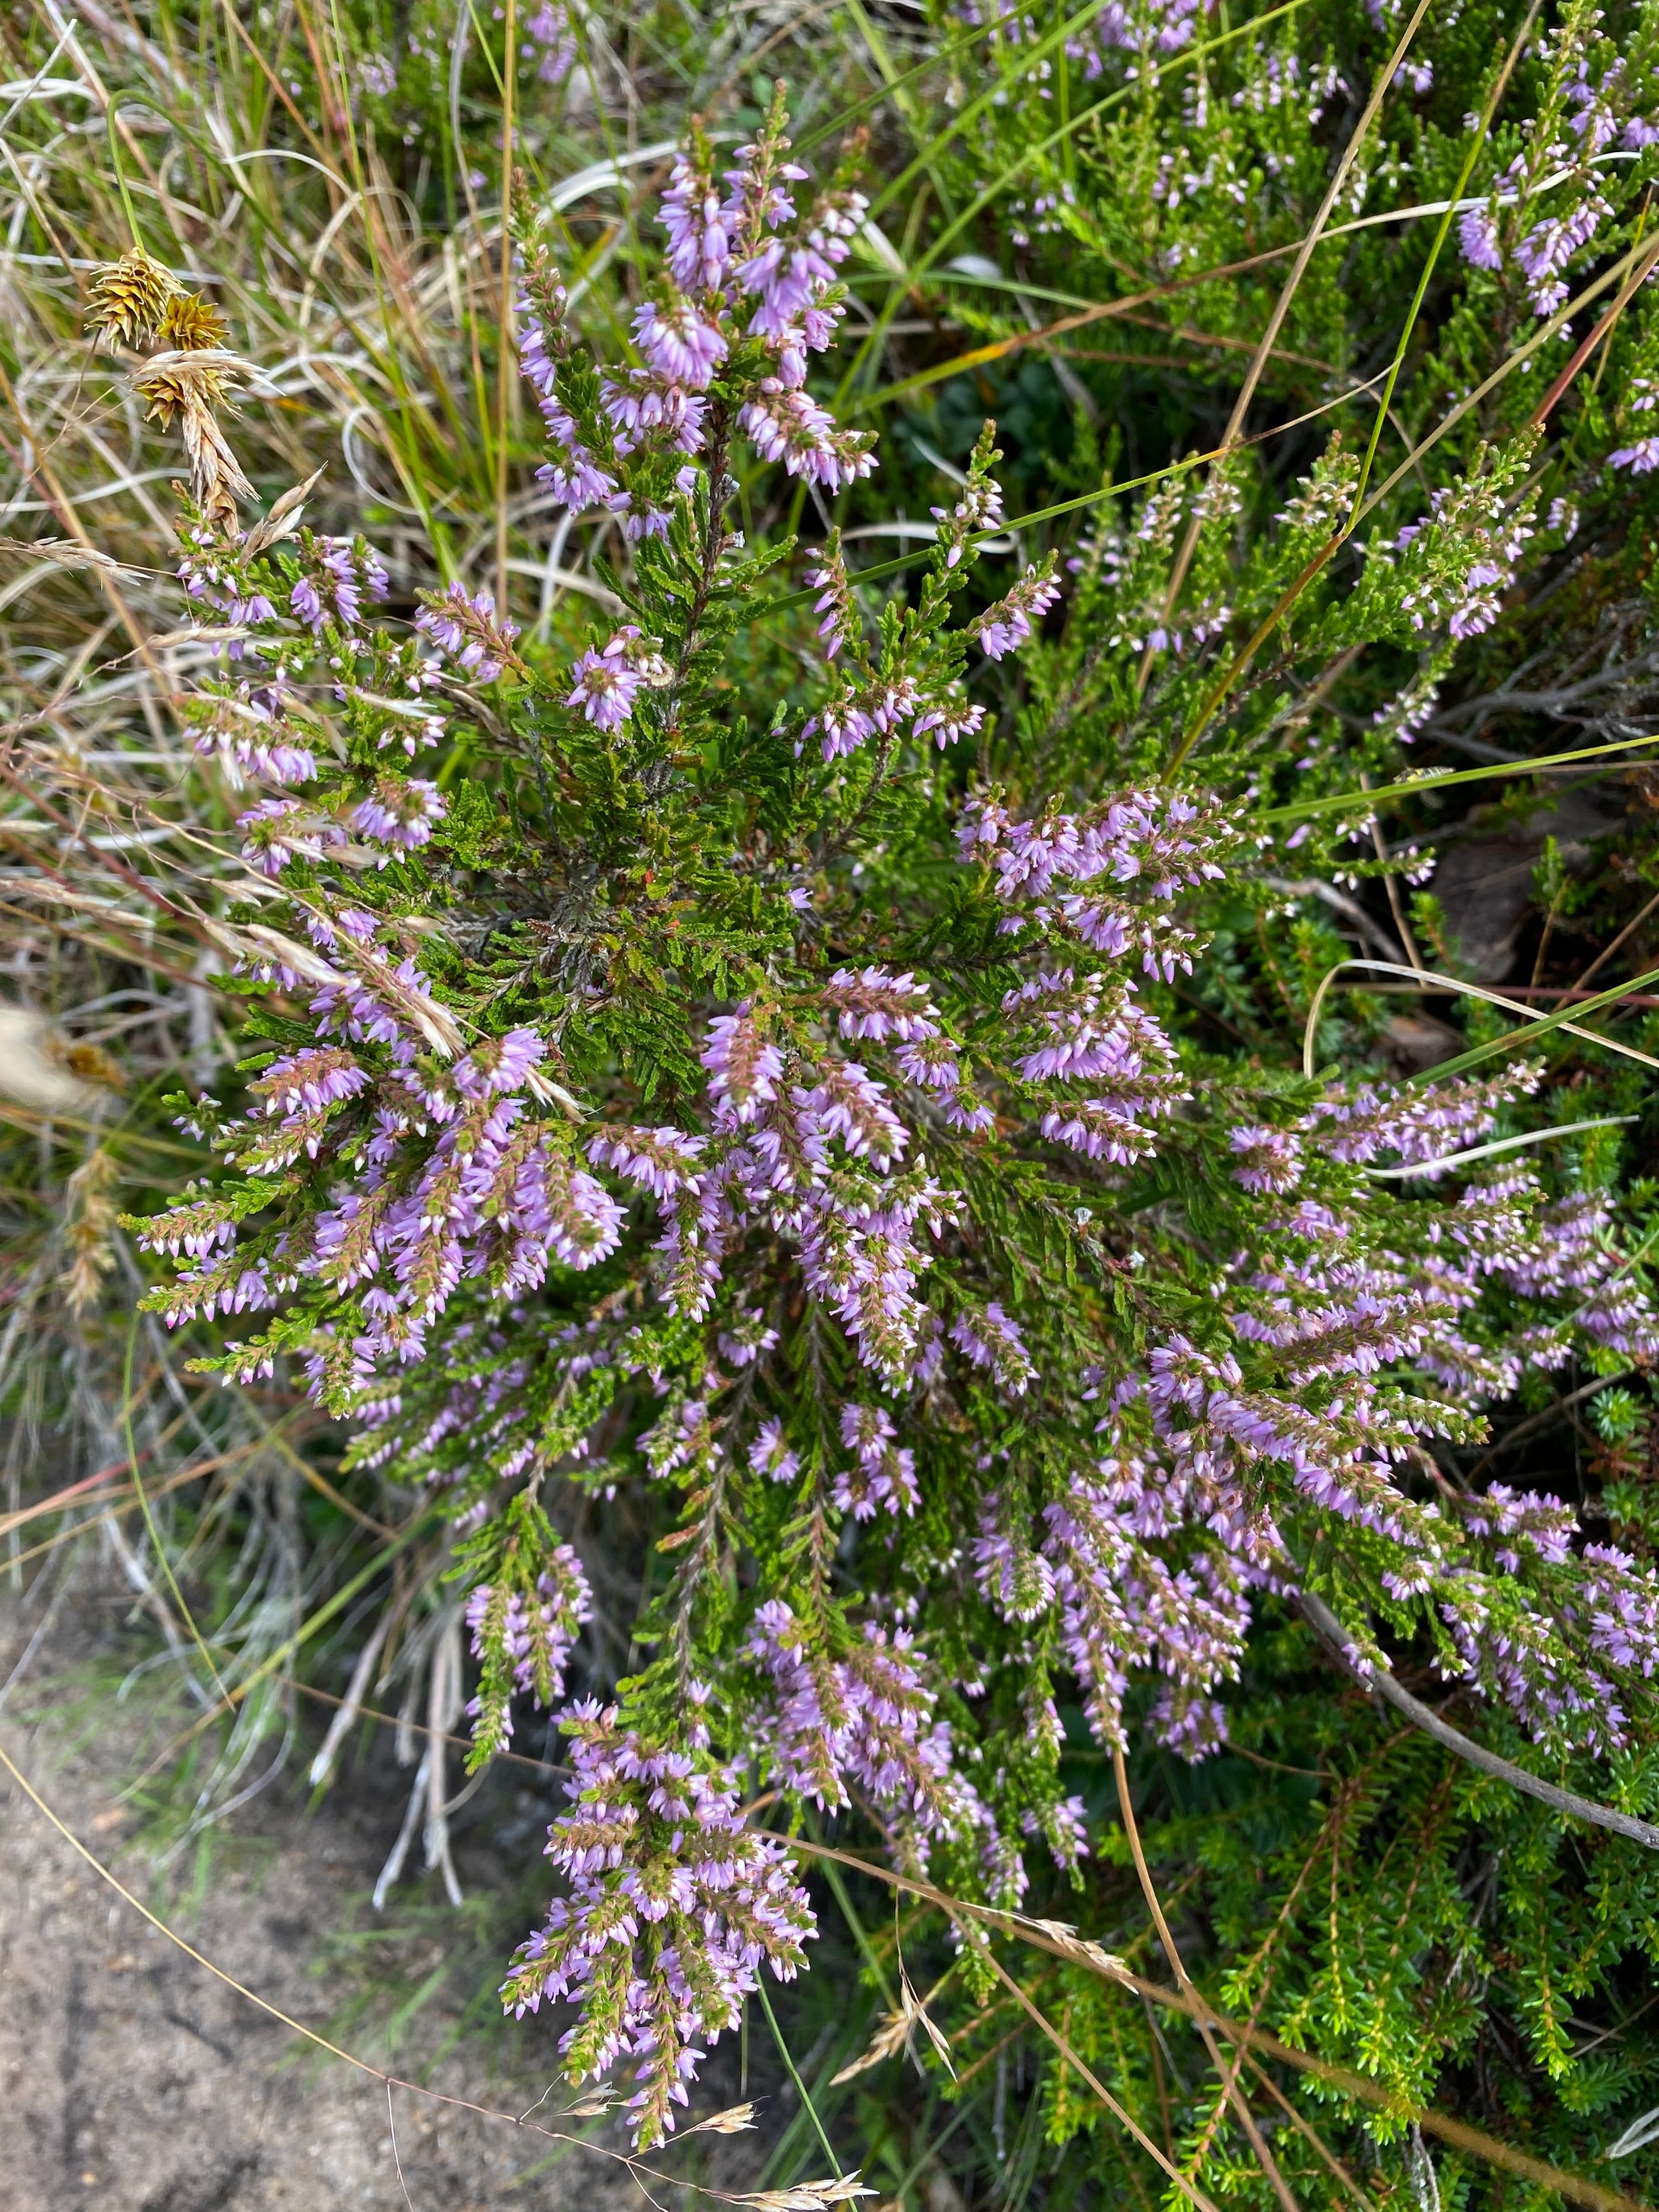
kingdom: Plantae
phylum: Tracheophyta
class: Magnoliopsida
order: Ericales
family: Ericaceae
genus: Calluna
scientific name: Calluna vulgaris
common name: Hedelyng
